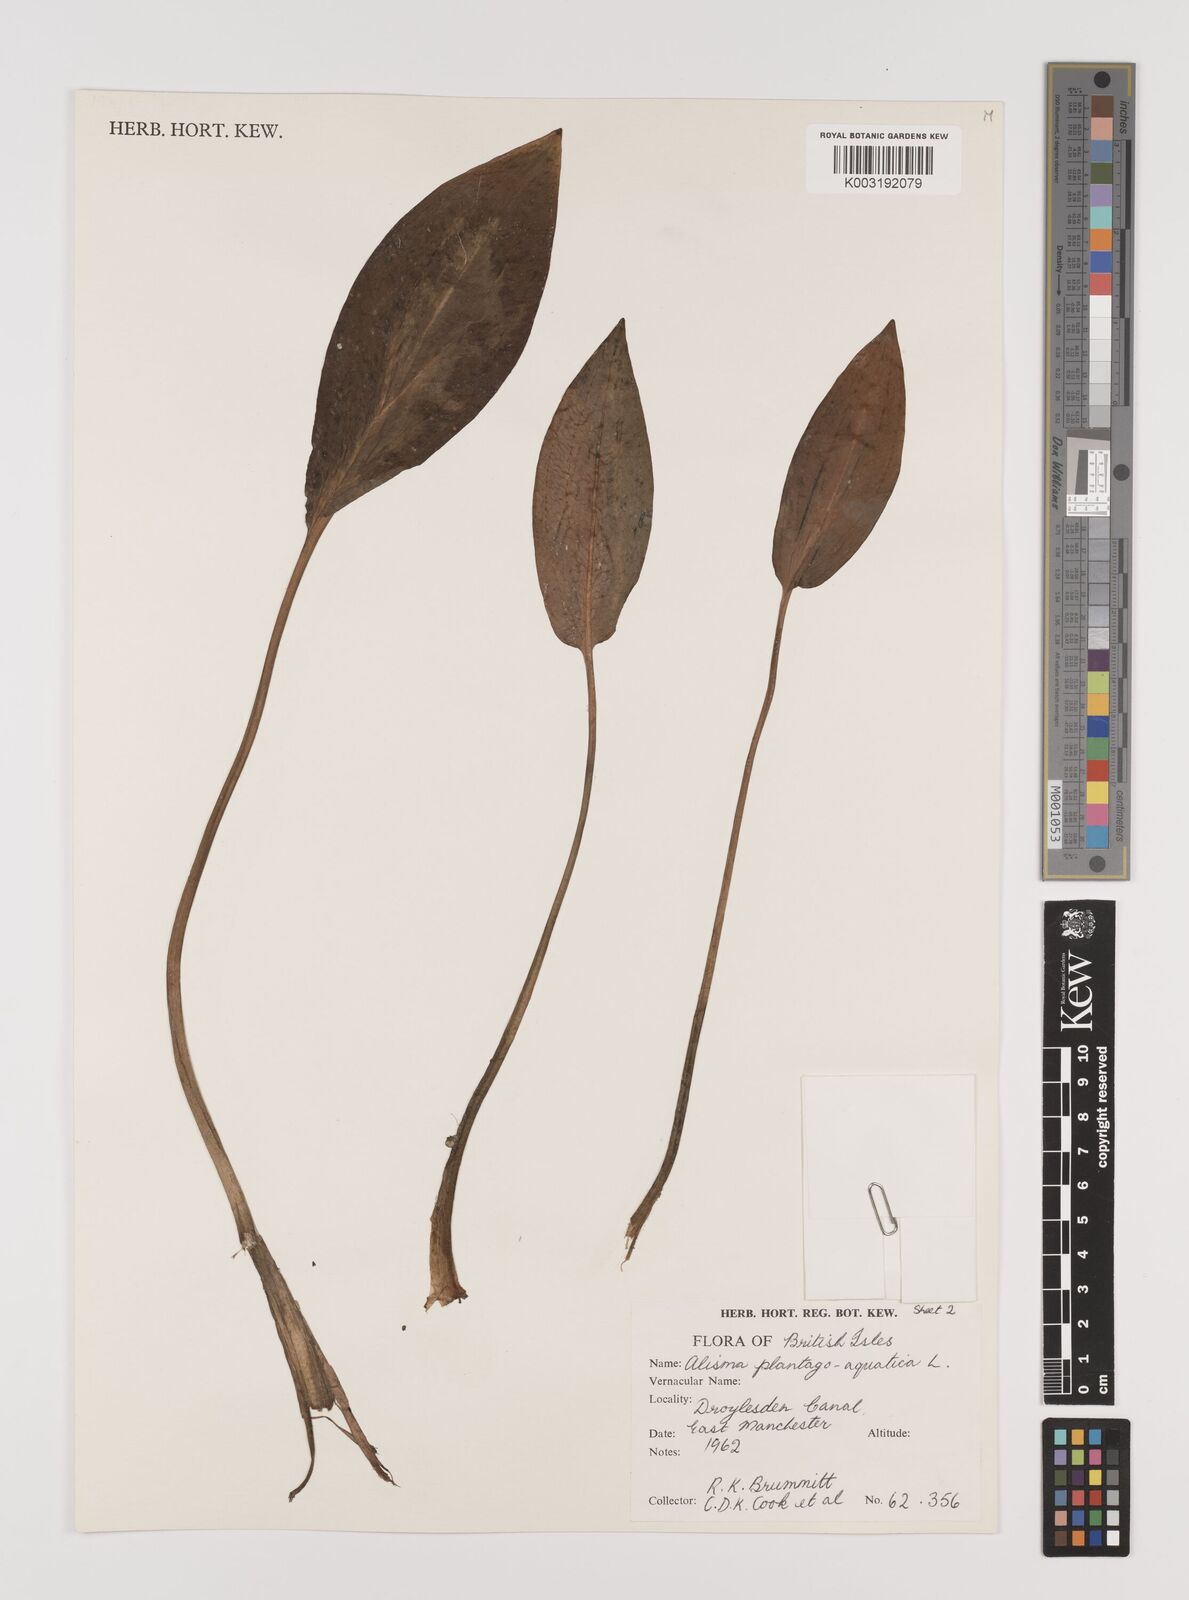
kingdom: Plantae
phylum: Tracheophyta
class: Liliopsida
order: Alismatales
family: Alismataceae
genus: Alisma
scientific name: Alisma plantago-aquatica
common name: Water-plantain
